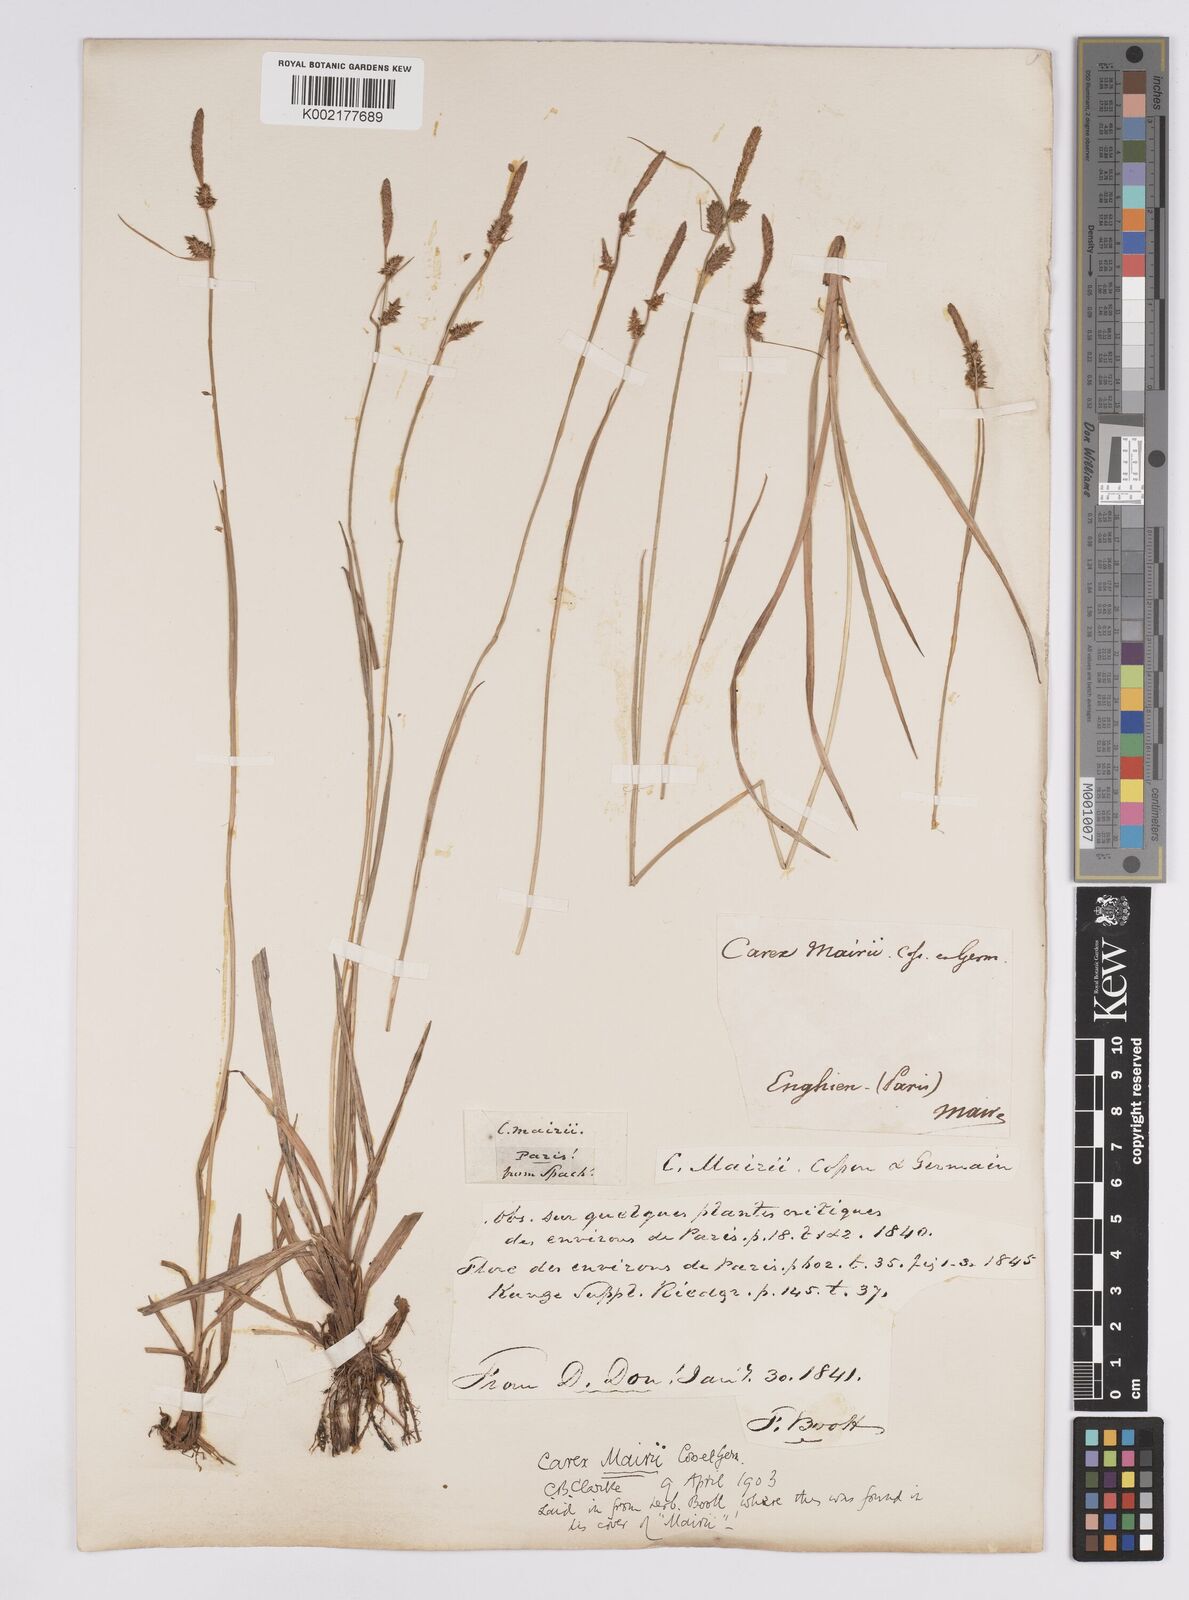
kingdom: Plantae
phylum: Tracheophyta
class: Liliopsida
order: Poales
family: Cyperaceae
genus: Carex
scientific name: Carex mairei
